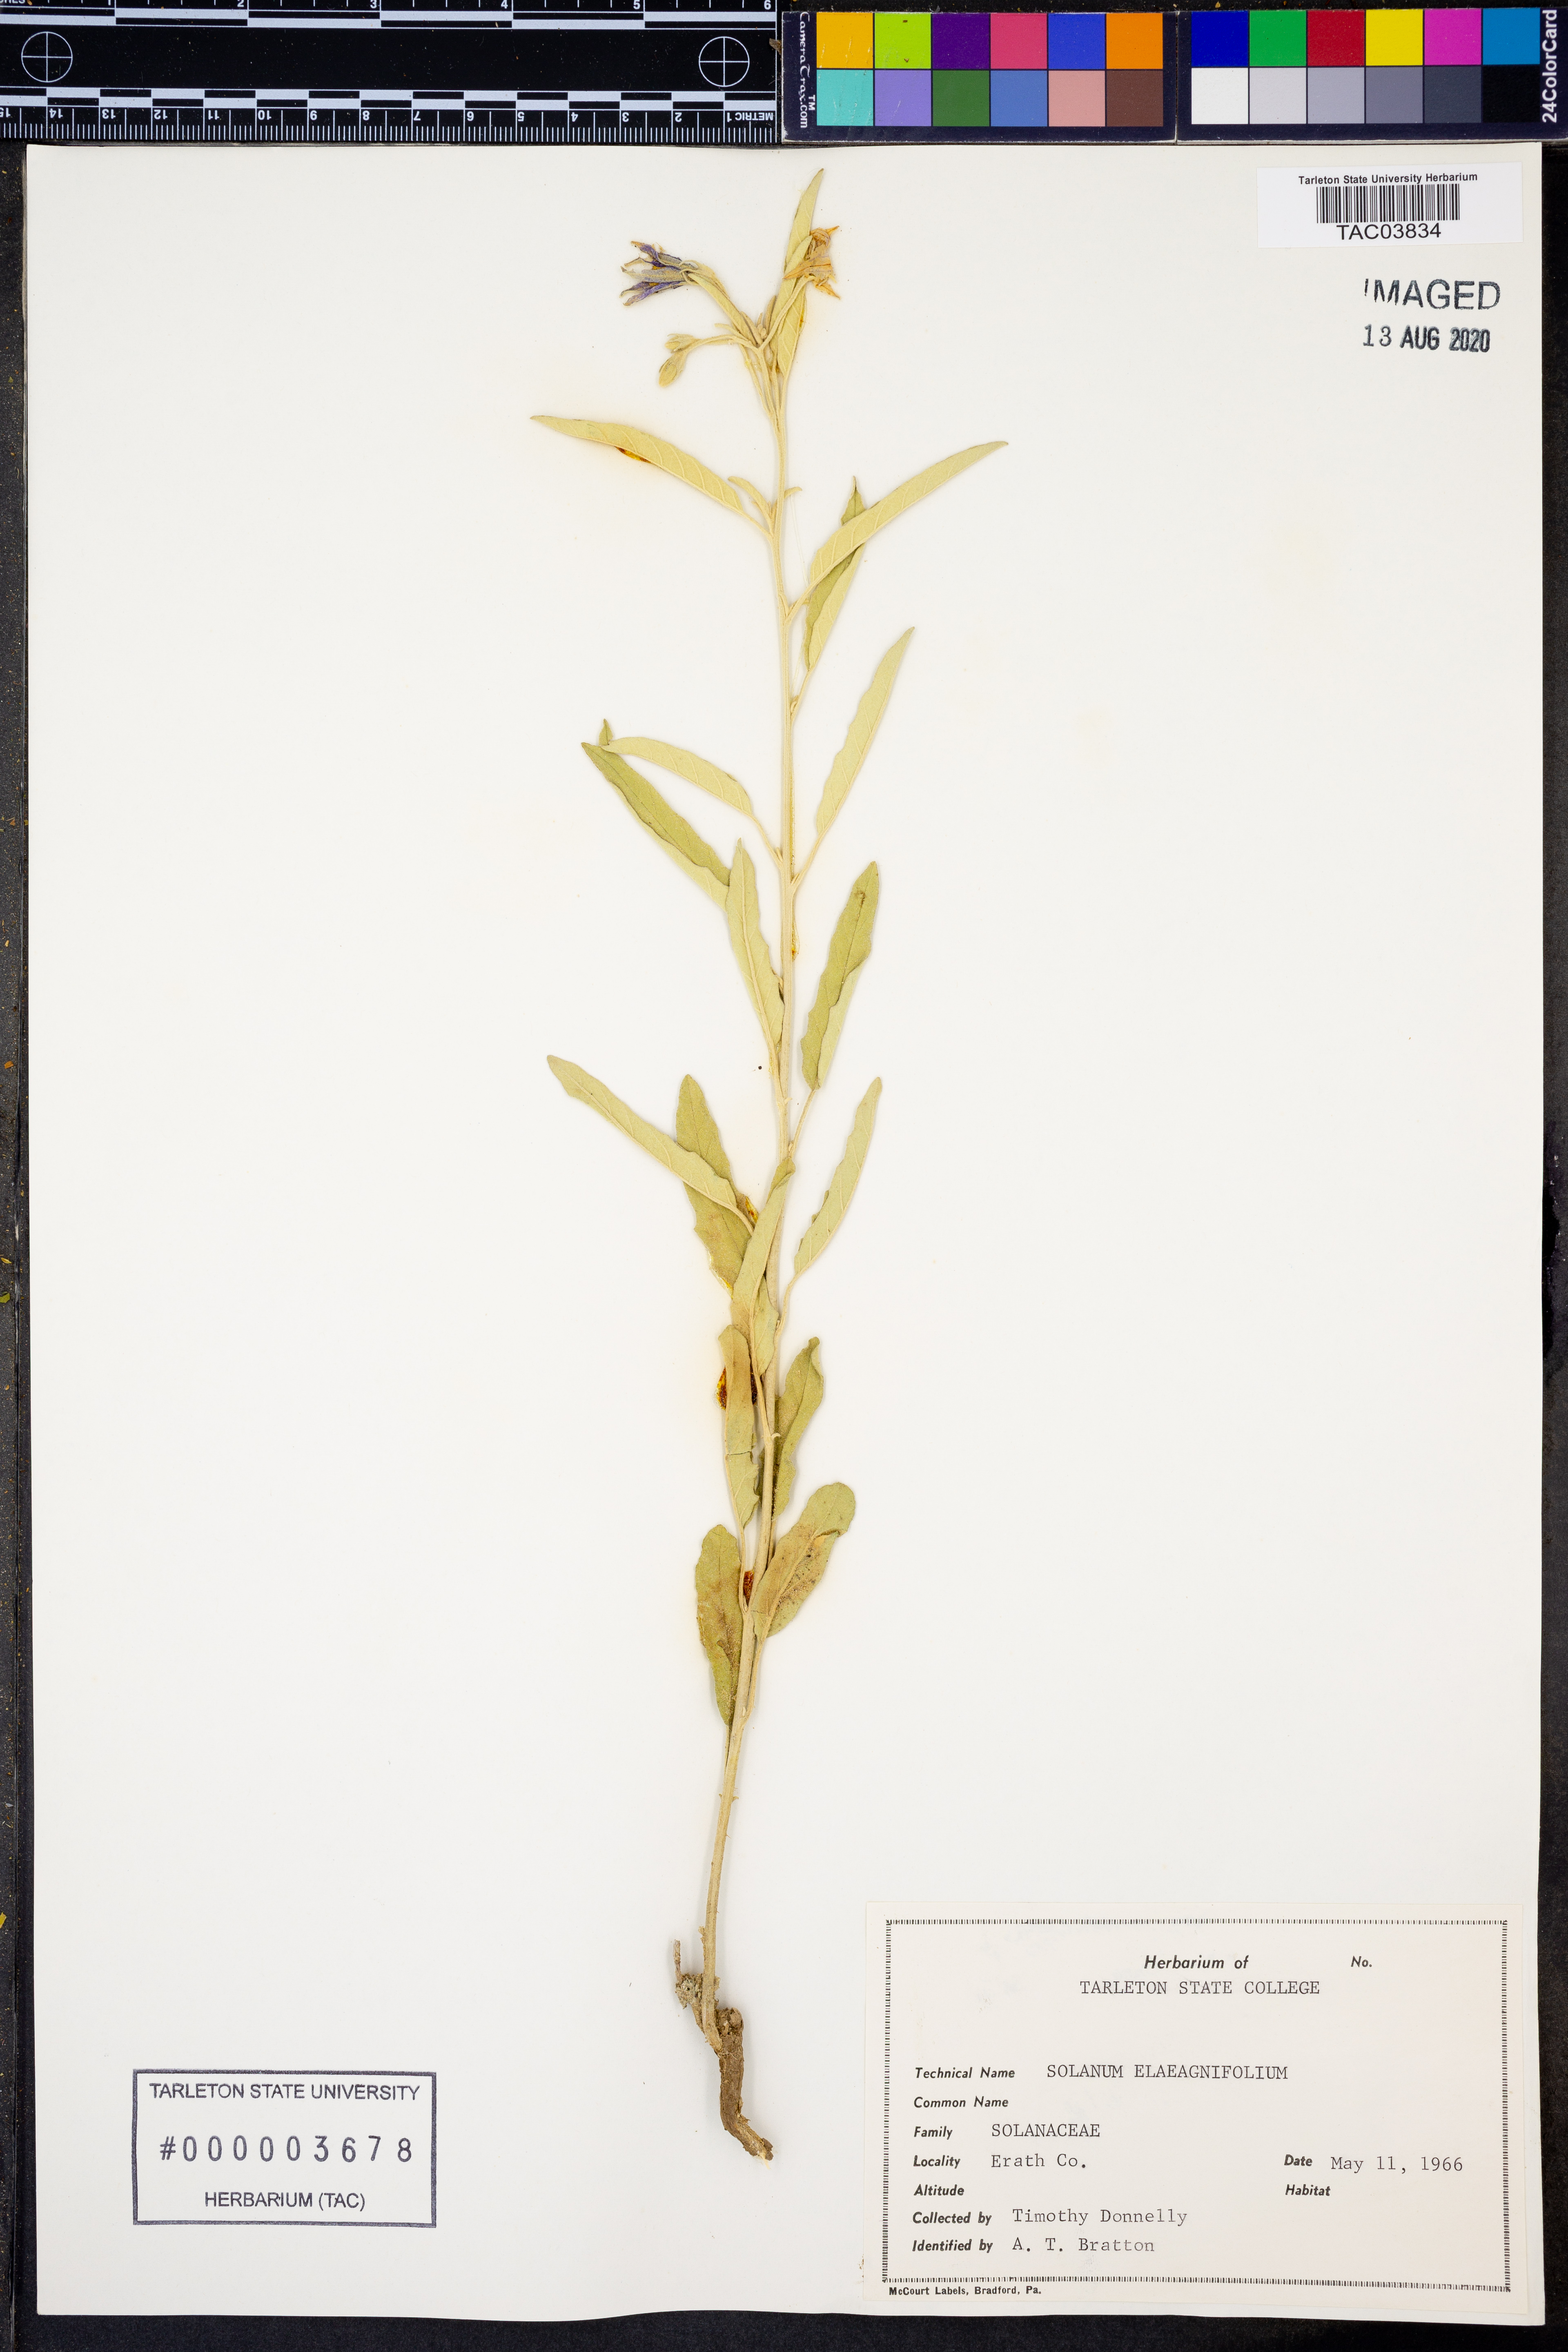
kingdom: Plantae
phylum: Tracheophyta
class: Magnoliopsida
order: Solanales
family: Solanaceae
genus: Solanum
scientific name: Solanum elaeagnifolium
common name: Silverleaf nightshade
